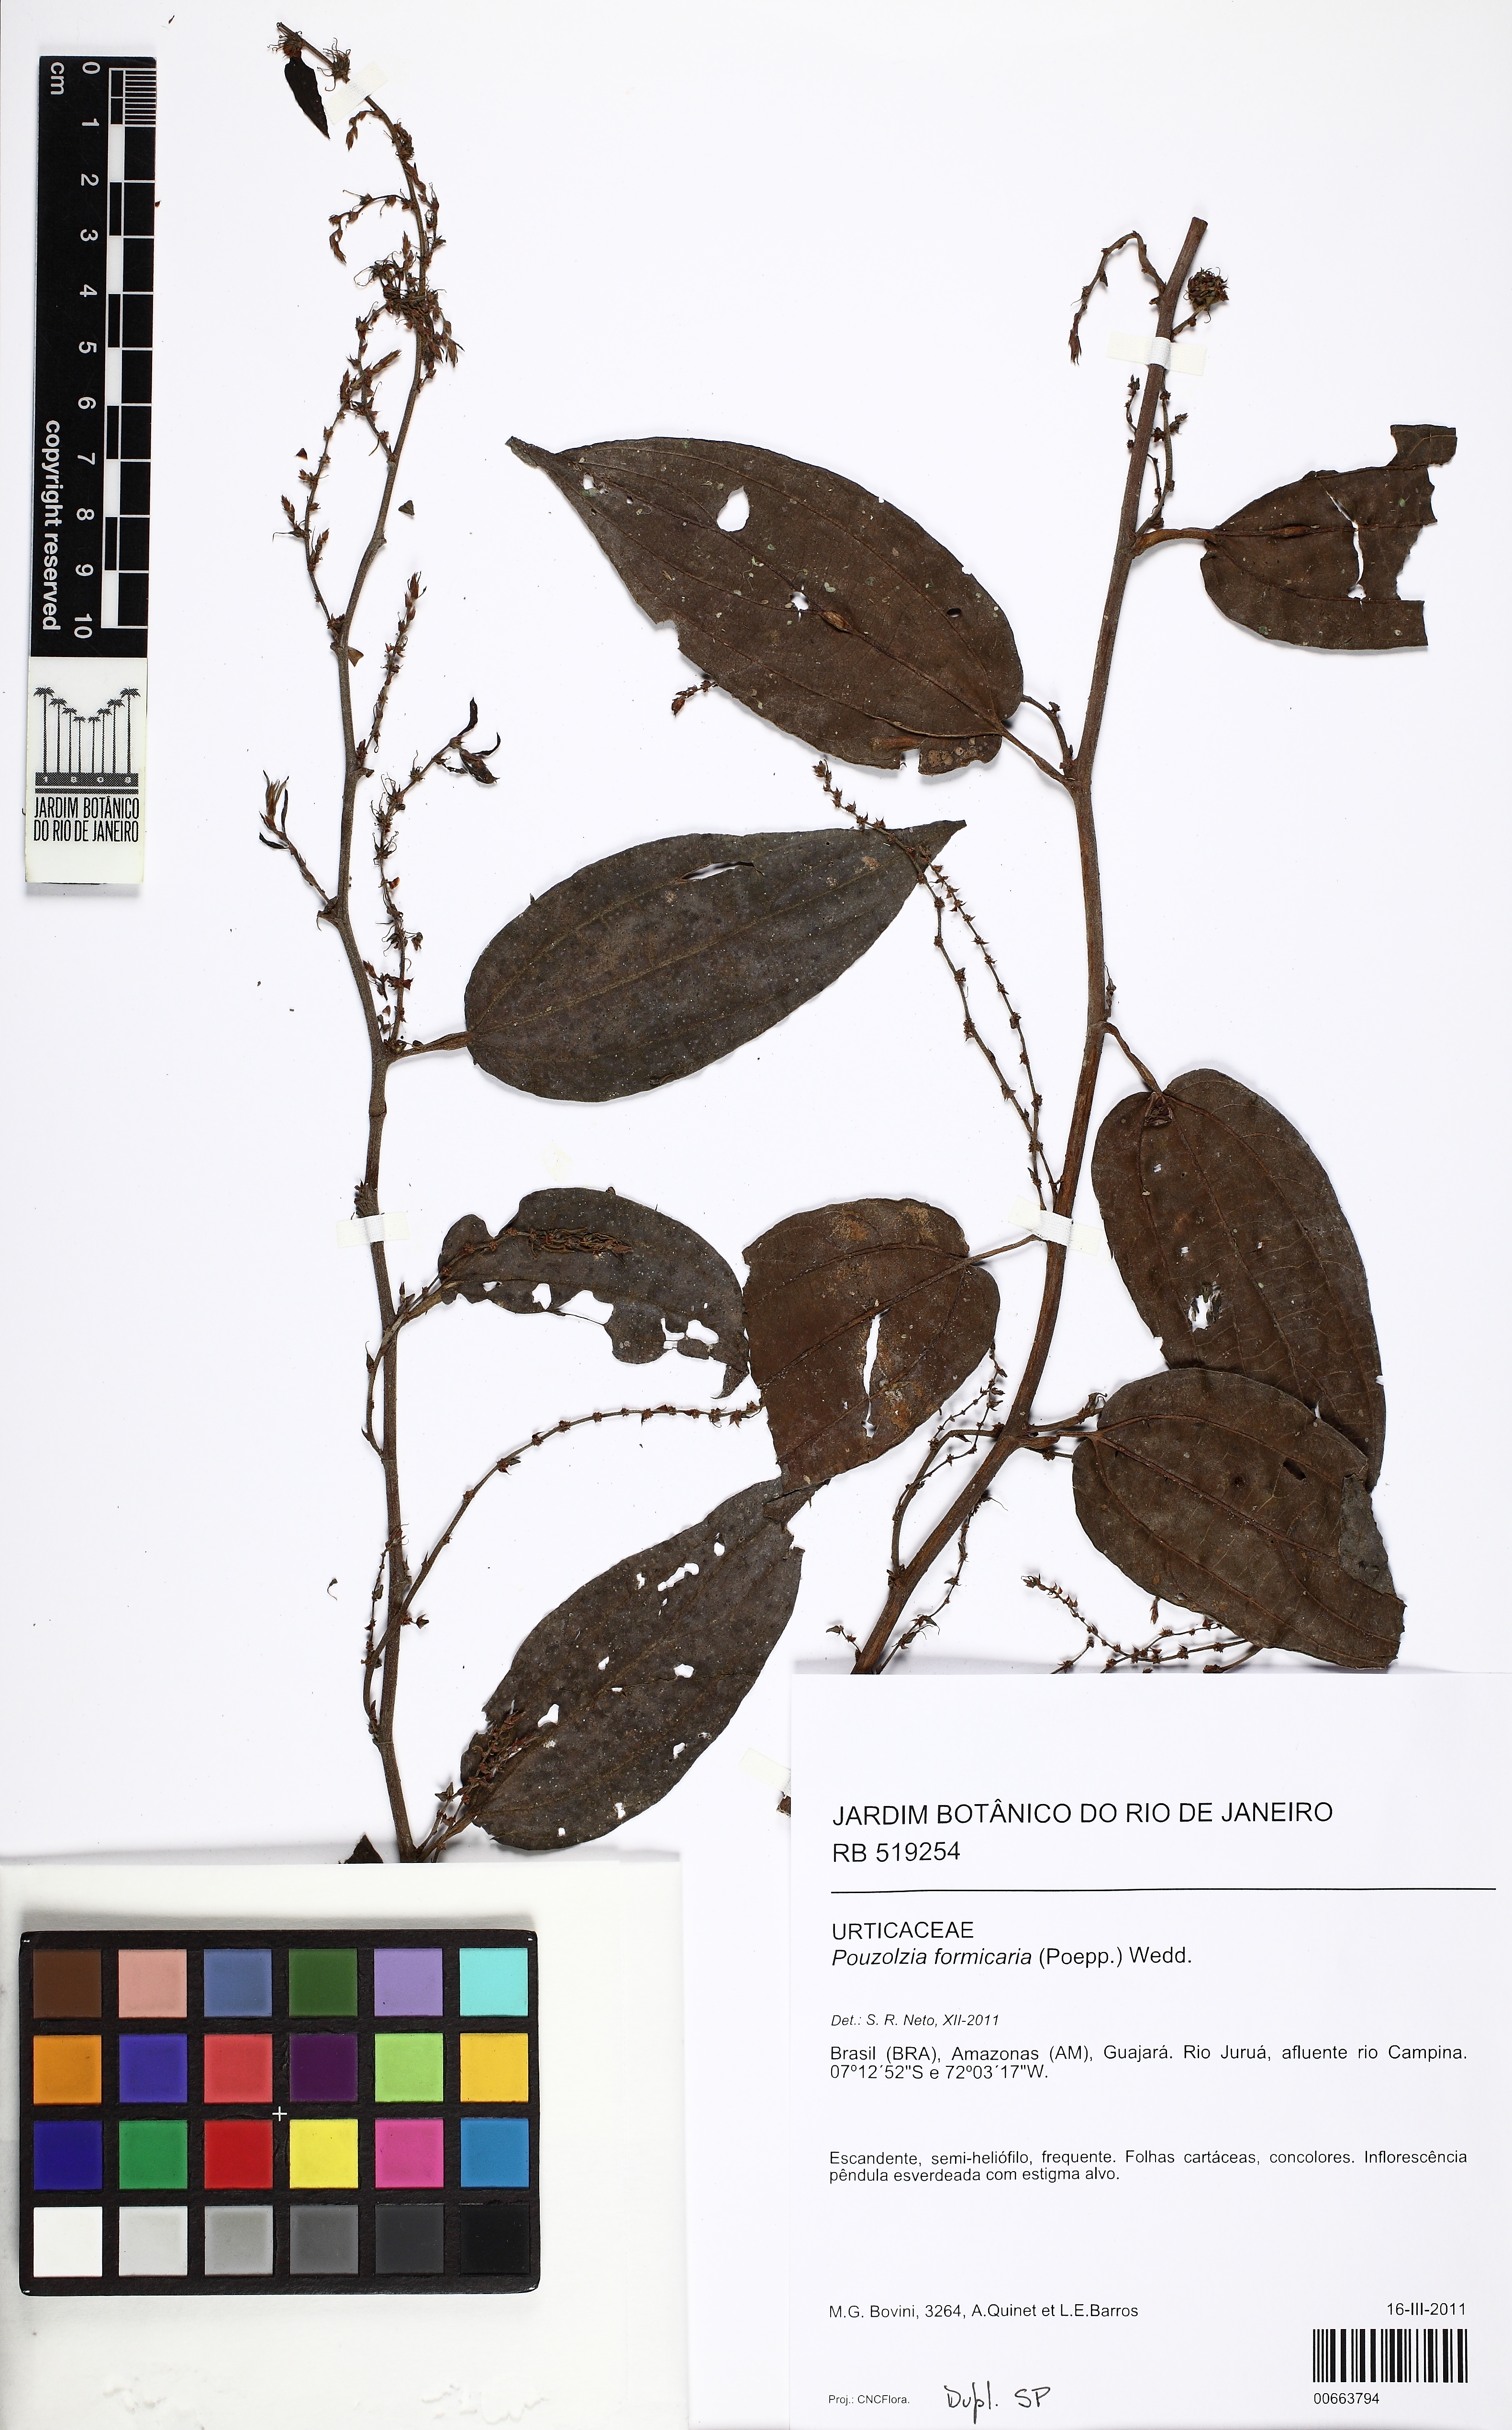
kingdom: Plantae
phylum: Tracheophyta
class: Magnoliopsida
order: Rosales
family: Urticaceae
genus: Pouzolzia
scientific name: Pouzolzia formicaria
